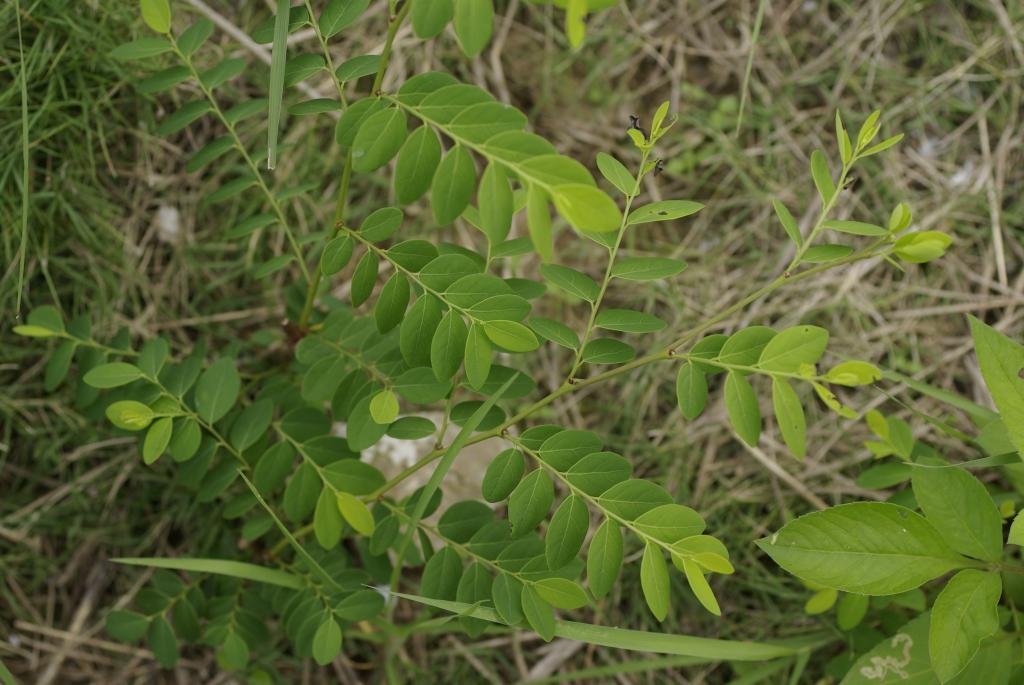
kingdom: Plantae
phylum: Tracheophyta
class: Magnoliopsida
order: Malpighiales
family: Phyllanthaceae
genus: Breynia
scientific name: Breynia officinalis
